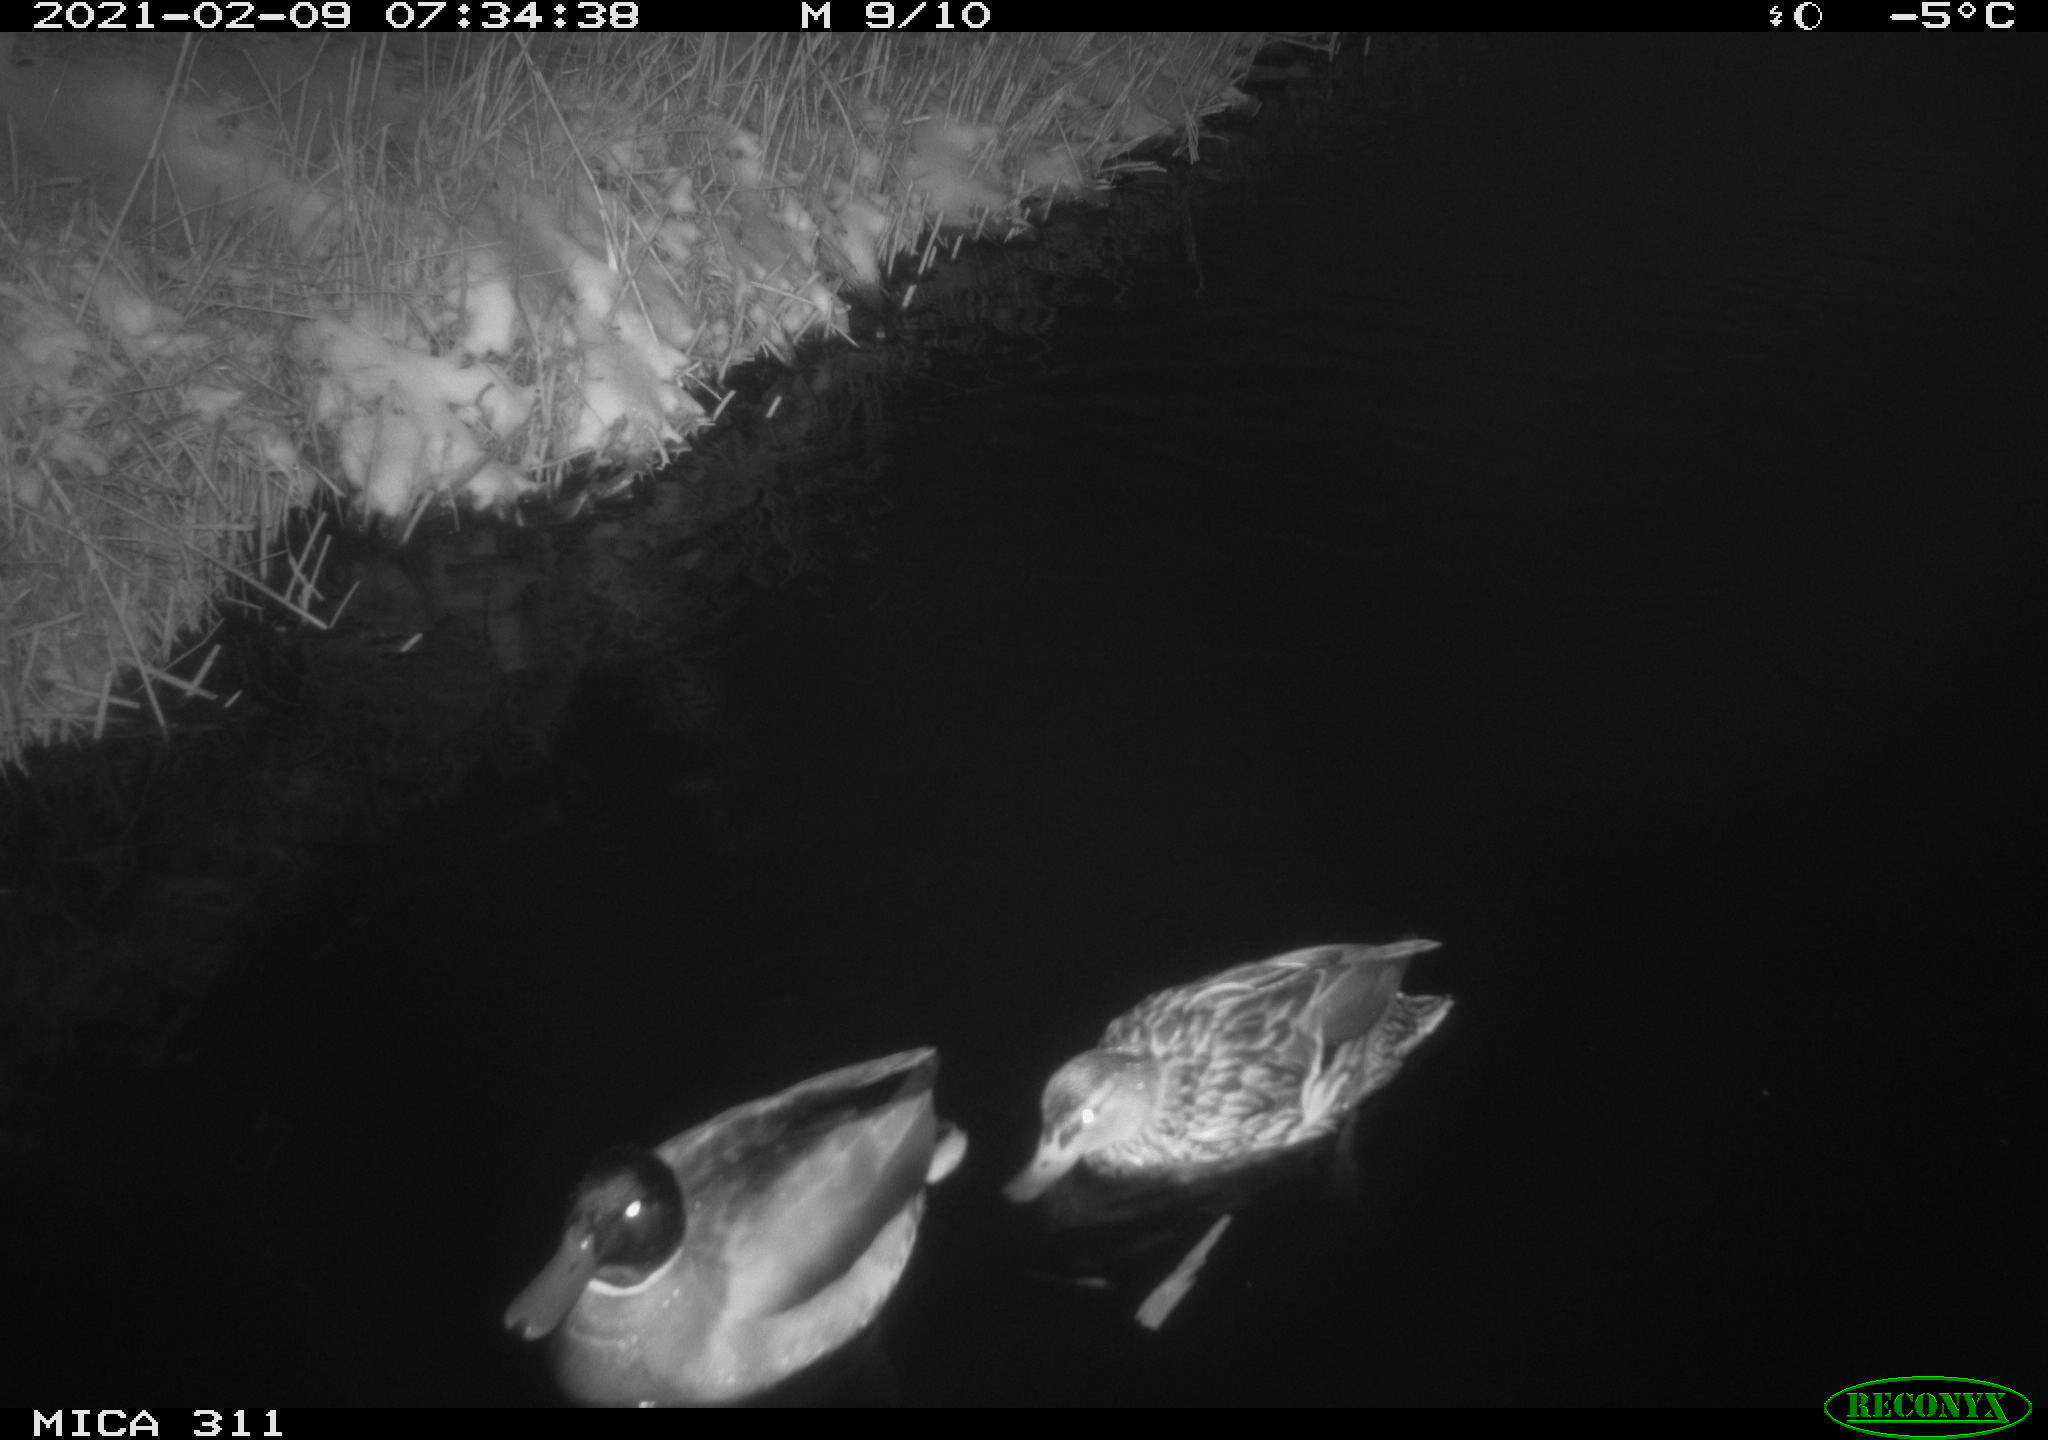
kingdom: Animalia
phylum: Chordata
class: Aves
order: Anseriformes
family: Anatidae
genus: Anas
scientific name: Anas platyrhynchos
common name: Mallard
